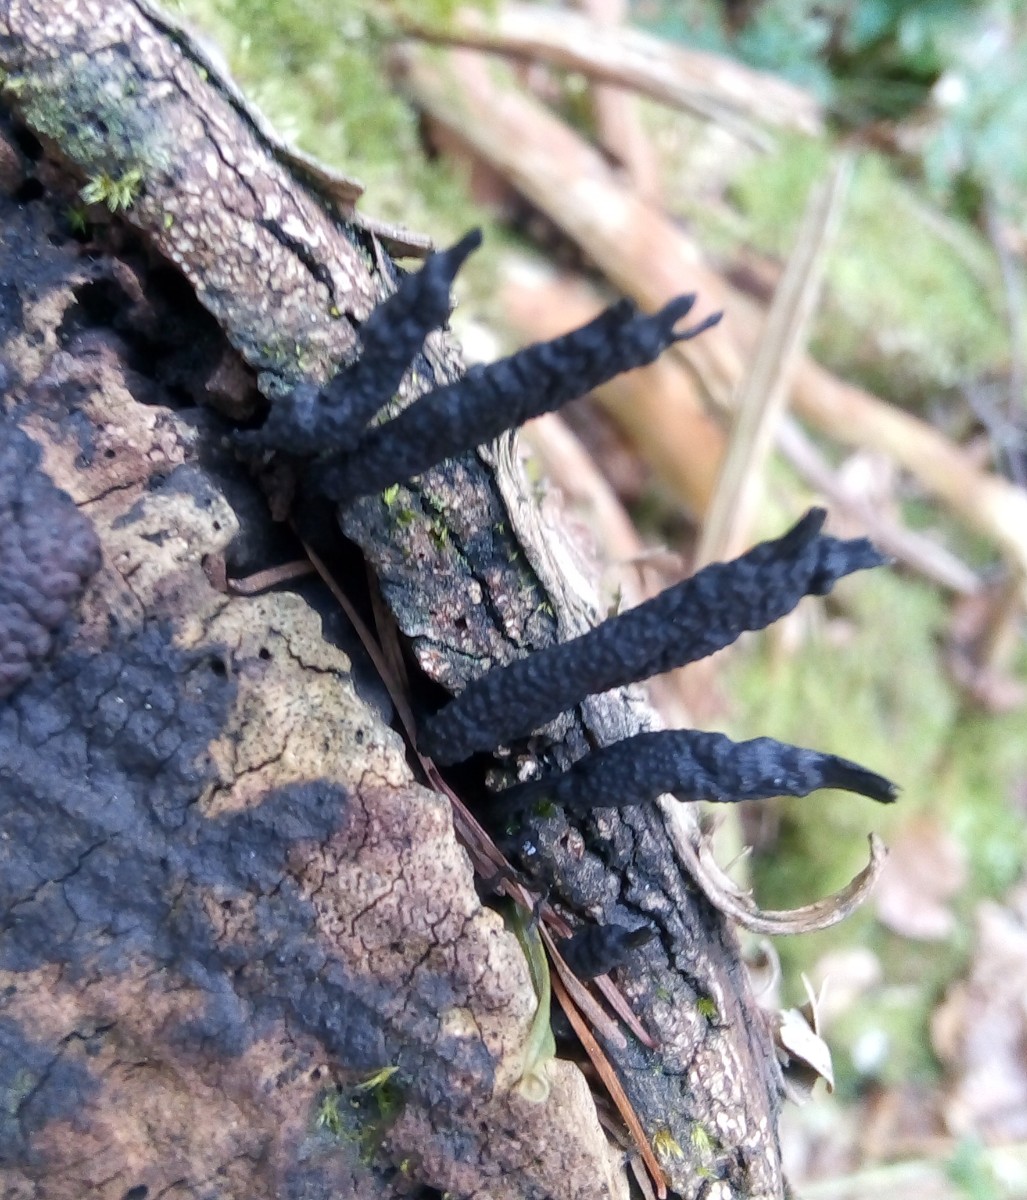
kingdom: Fungi
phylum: Ascomycota
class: Sordariomycetes
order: Xylariales
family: Xylariaceae
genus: Xylaria
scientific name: Xylaria hypoxylon
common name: grenet stødsvamp
